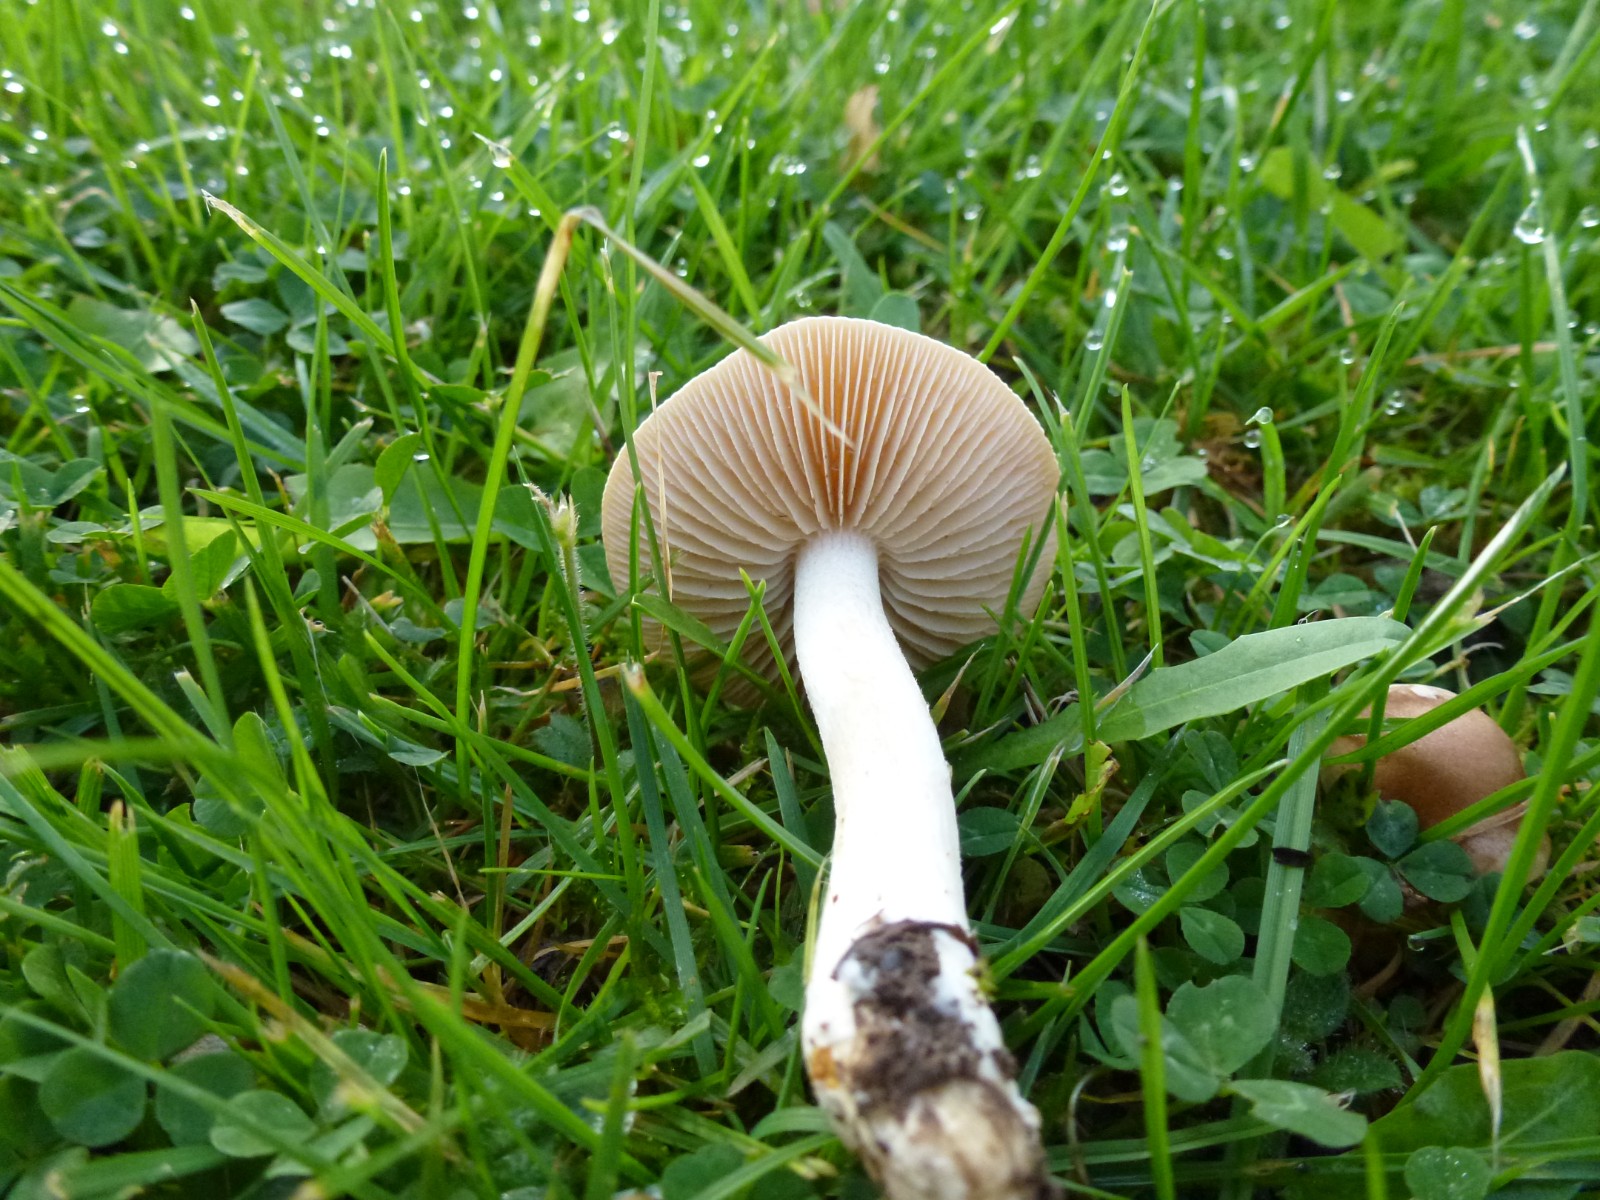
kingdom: Fungi
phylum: Basidiomycota
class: Agaricomycetes
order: Agaricales
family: Hymenogastraceae
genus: Hebeloma
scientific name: Hebeloma
